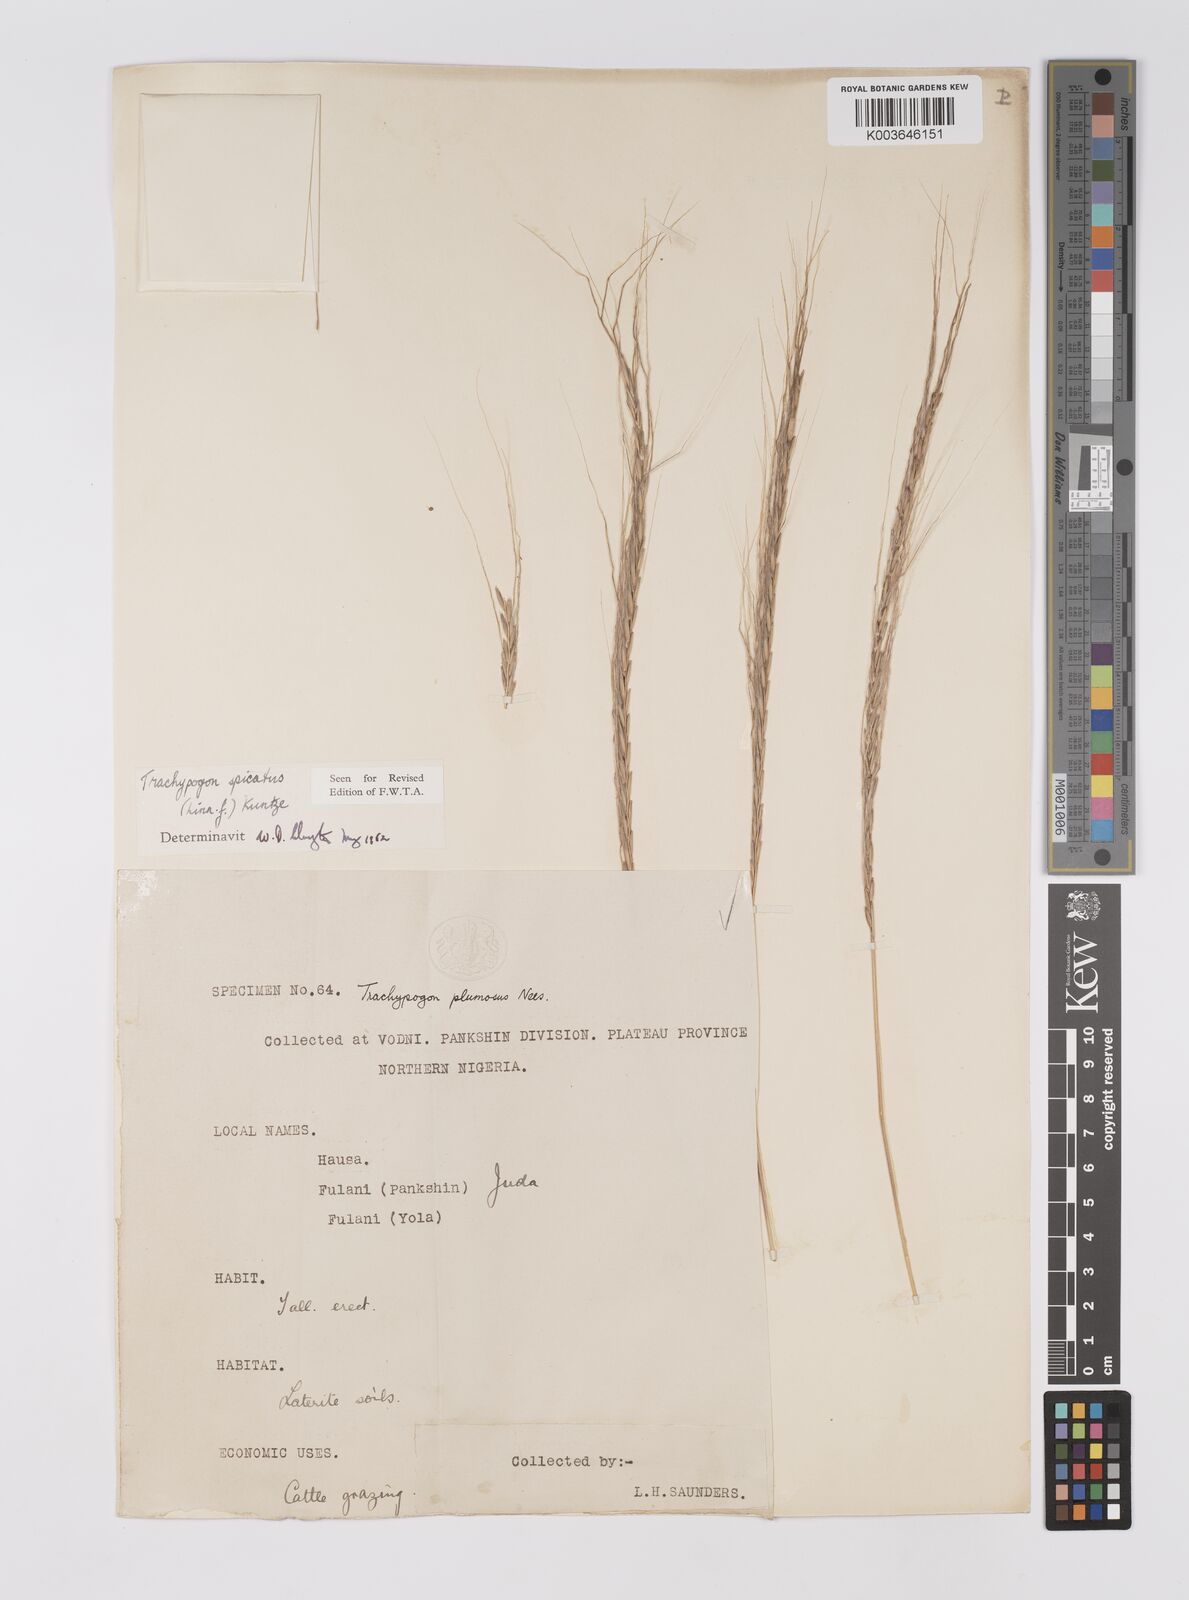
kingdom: Plantae
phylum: Tracheophyta
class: Liliopsida
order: Poales
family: Poaceae
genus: Trachypogon
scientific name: Trachypogon spicatus
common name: Crinkle-awn
